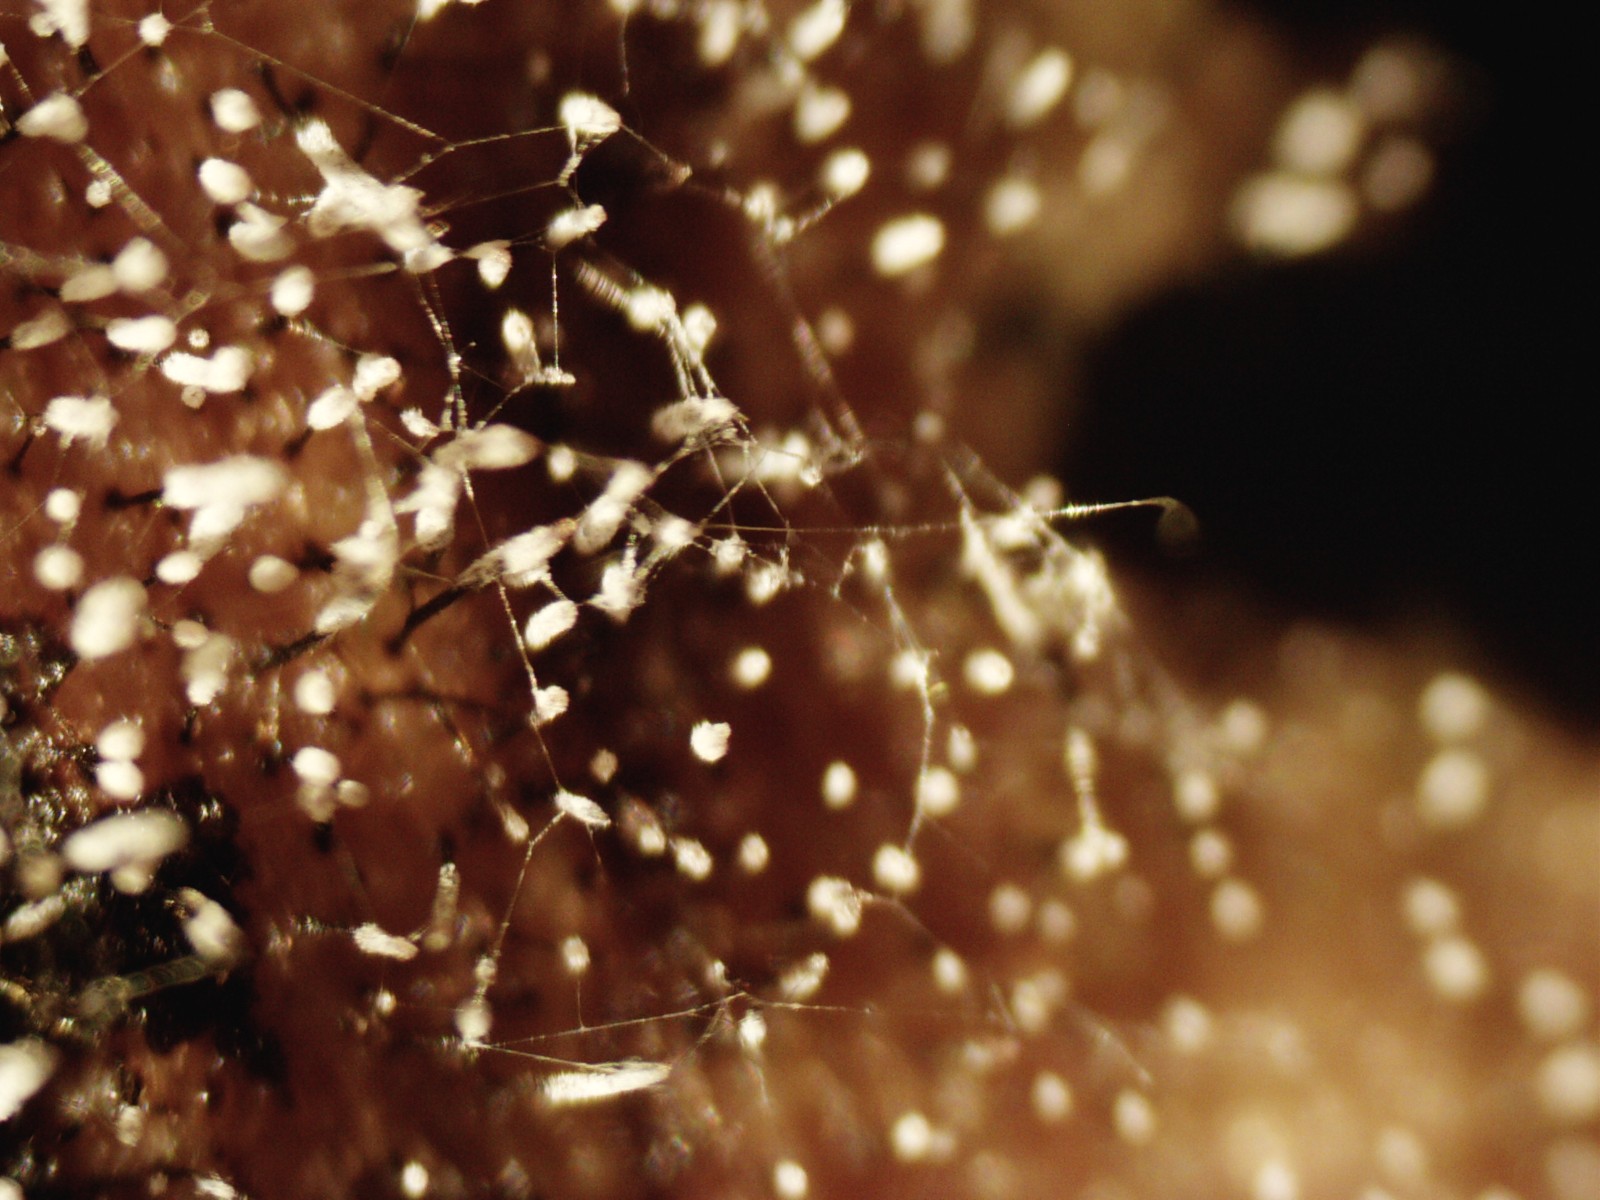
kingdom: Fungi
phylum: Ascomycota
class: Sordariomycetes
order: Microascales
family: Microascaceae
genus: Cephalotrichum
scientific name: Cephalotrichum stemonitis
